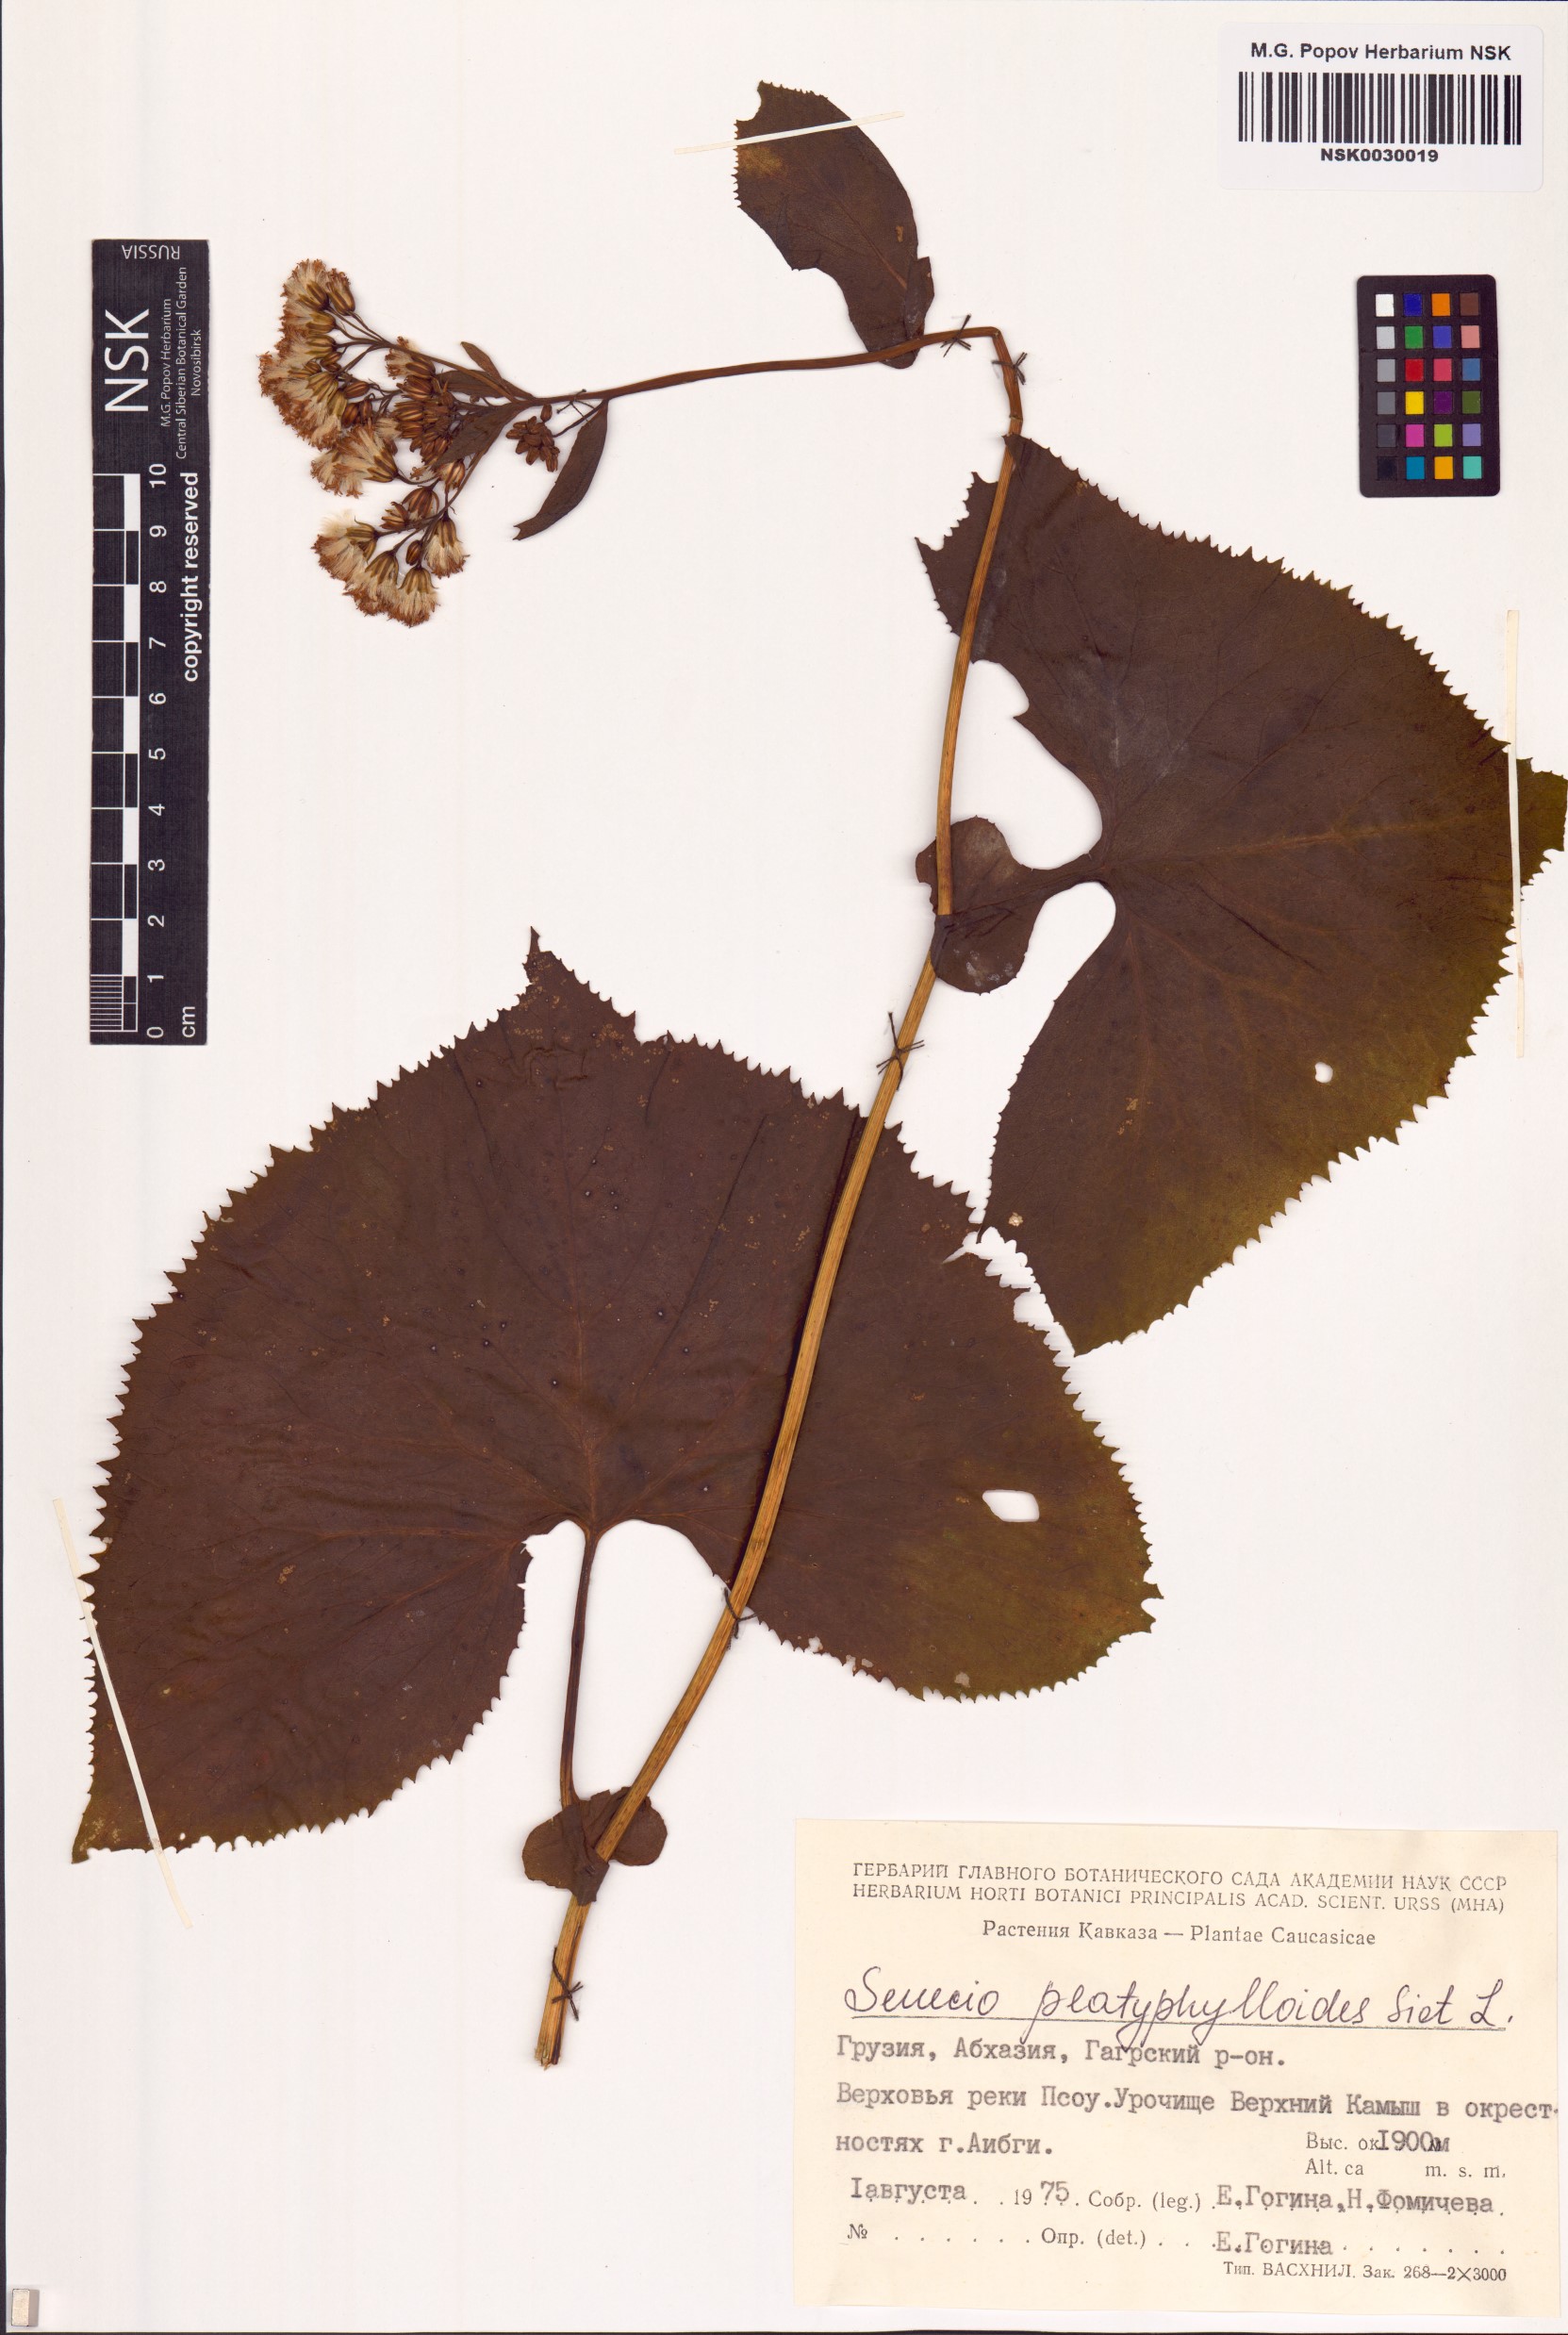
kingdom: Plantae
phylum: Tracheophyta
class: Magnoliopsida
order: Asterales
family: Asteraceae
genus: Caucasalia
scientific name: Caucasalia pontica
